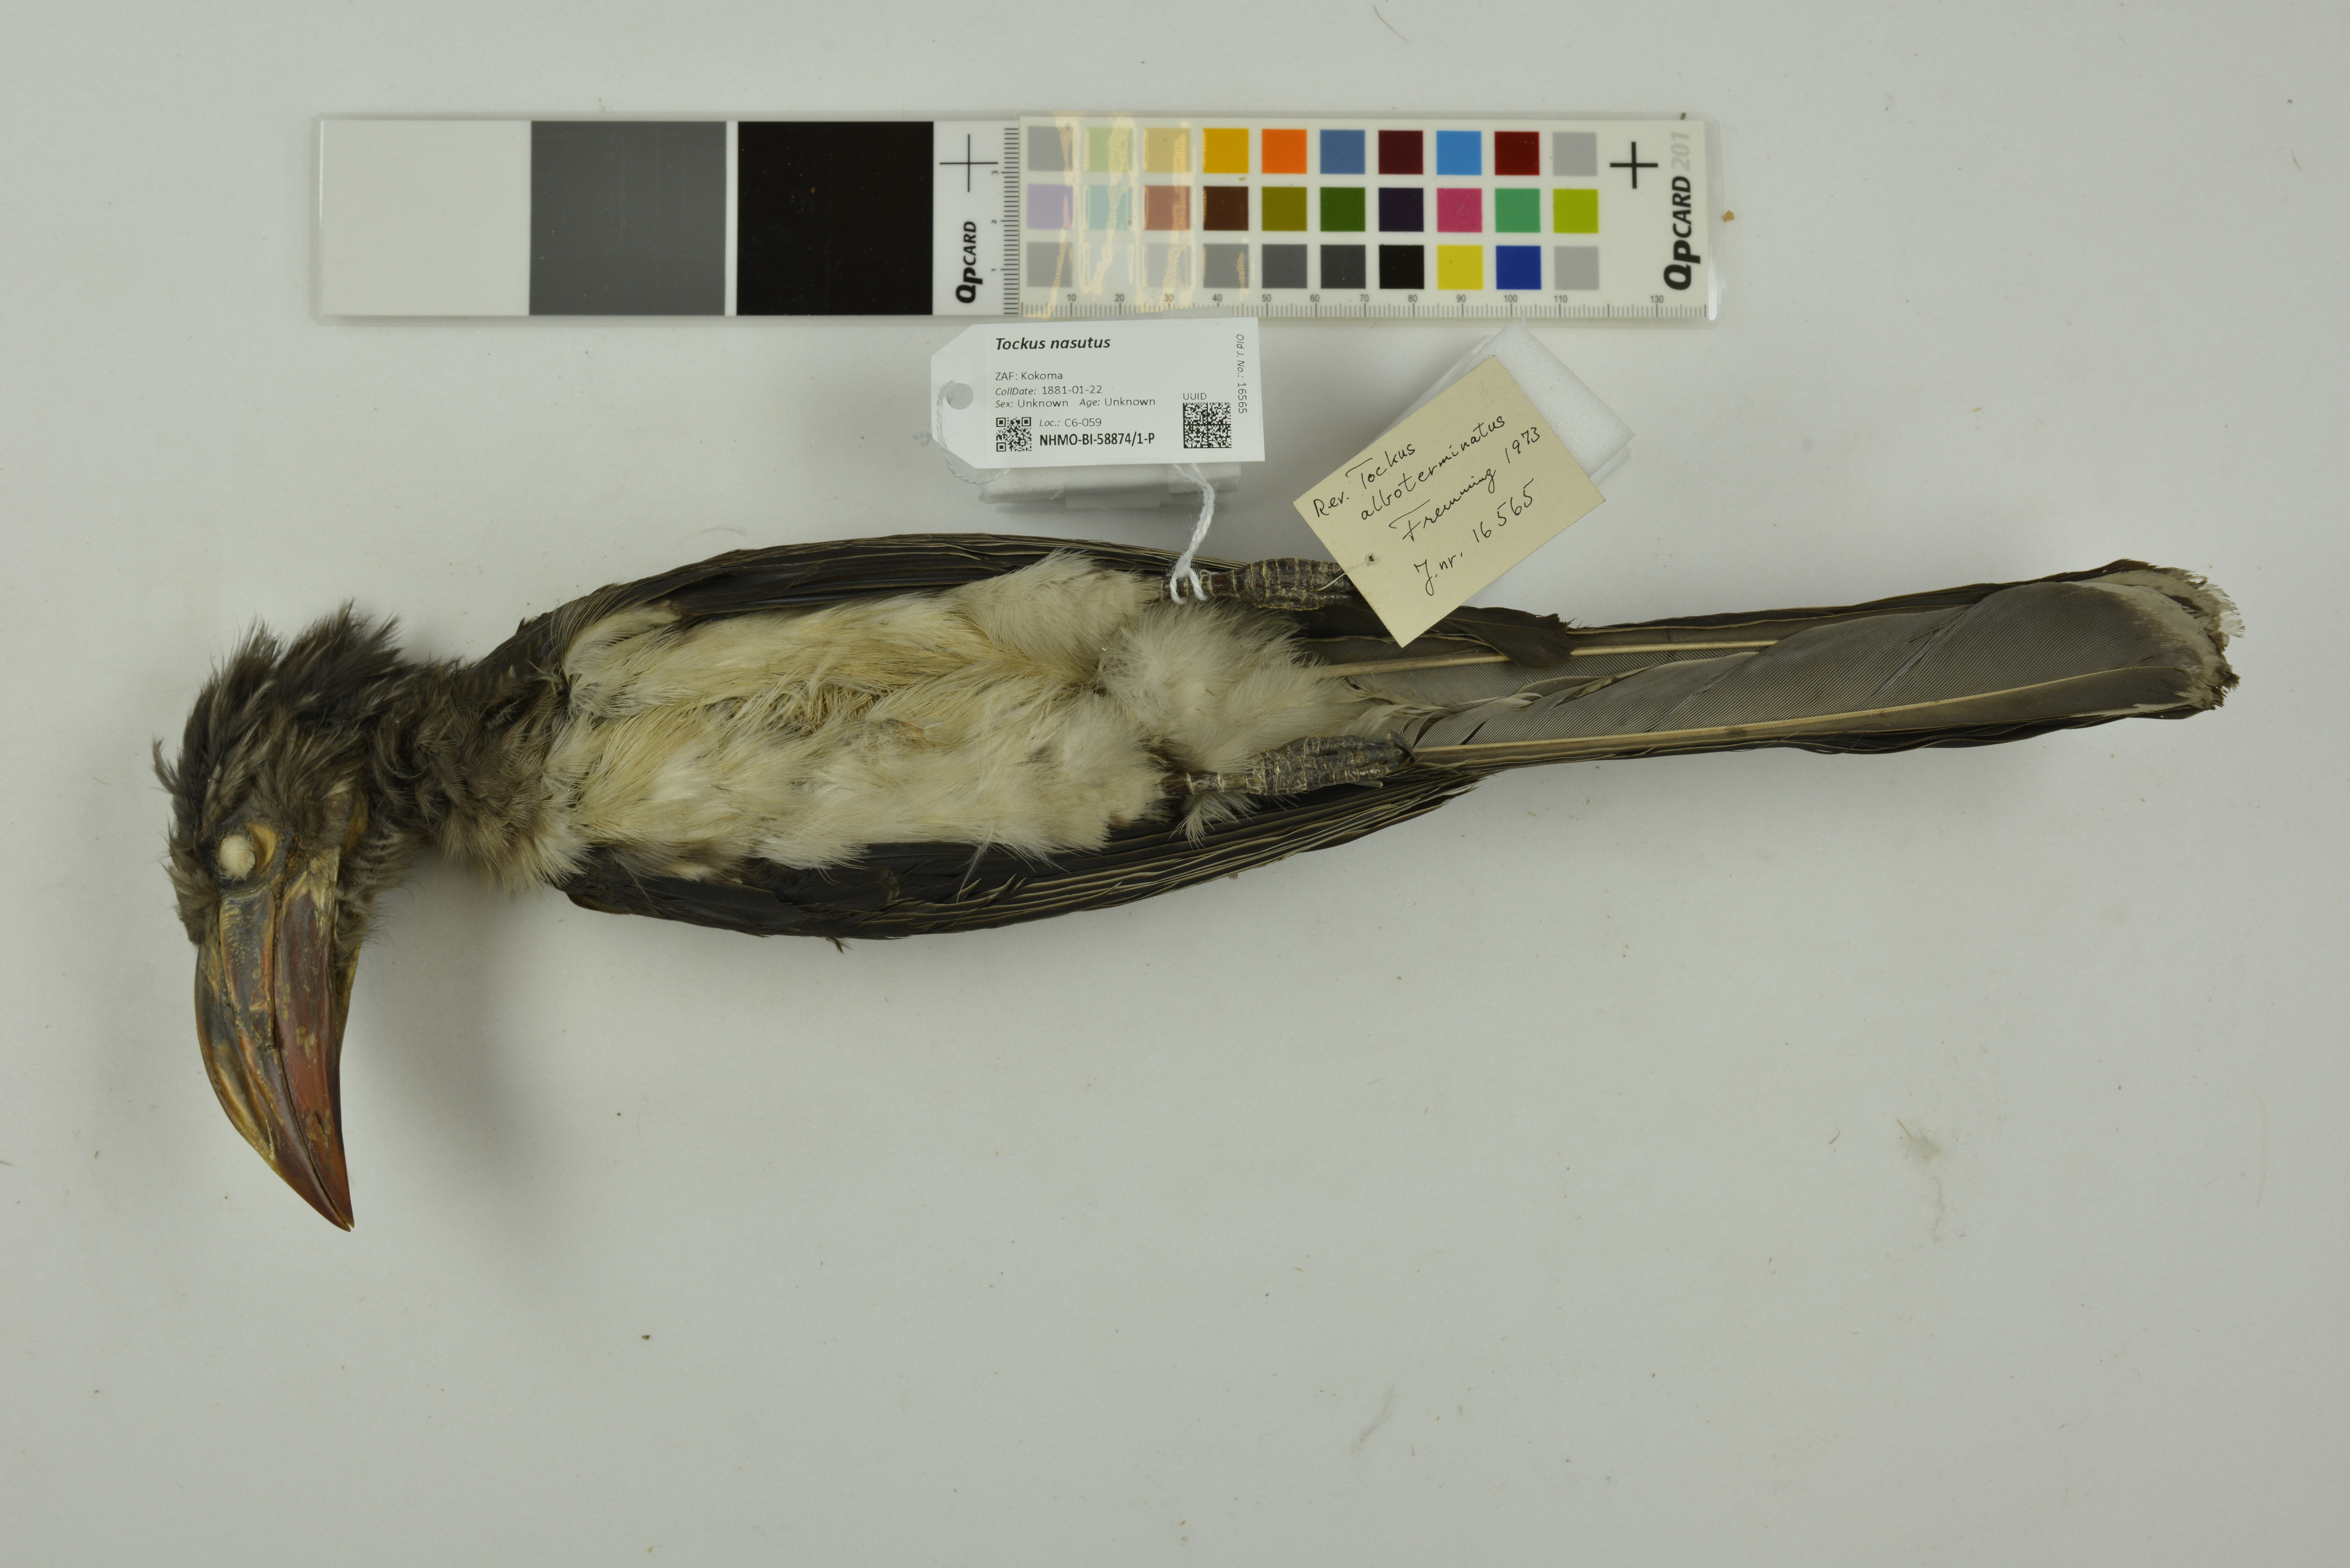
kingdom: Animalia
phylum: Chordata
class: Aves
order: Bucerotiformes
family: Bucerotidae
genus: Lophoceros
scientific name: Lophoceros nasutus
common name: African grey hornbill
